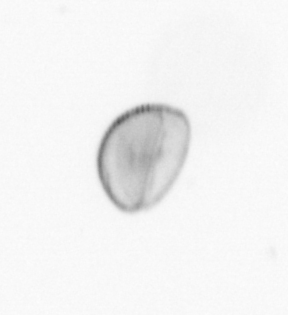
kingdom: Chromista
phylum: Ochrophyta
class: Bacillariophyceae
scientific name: Bacillariophyceae
